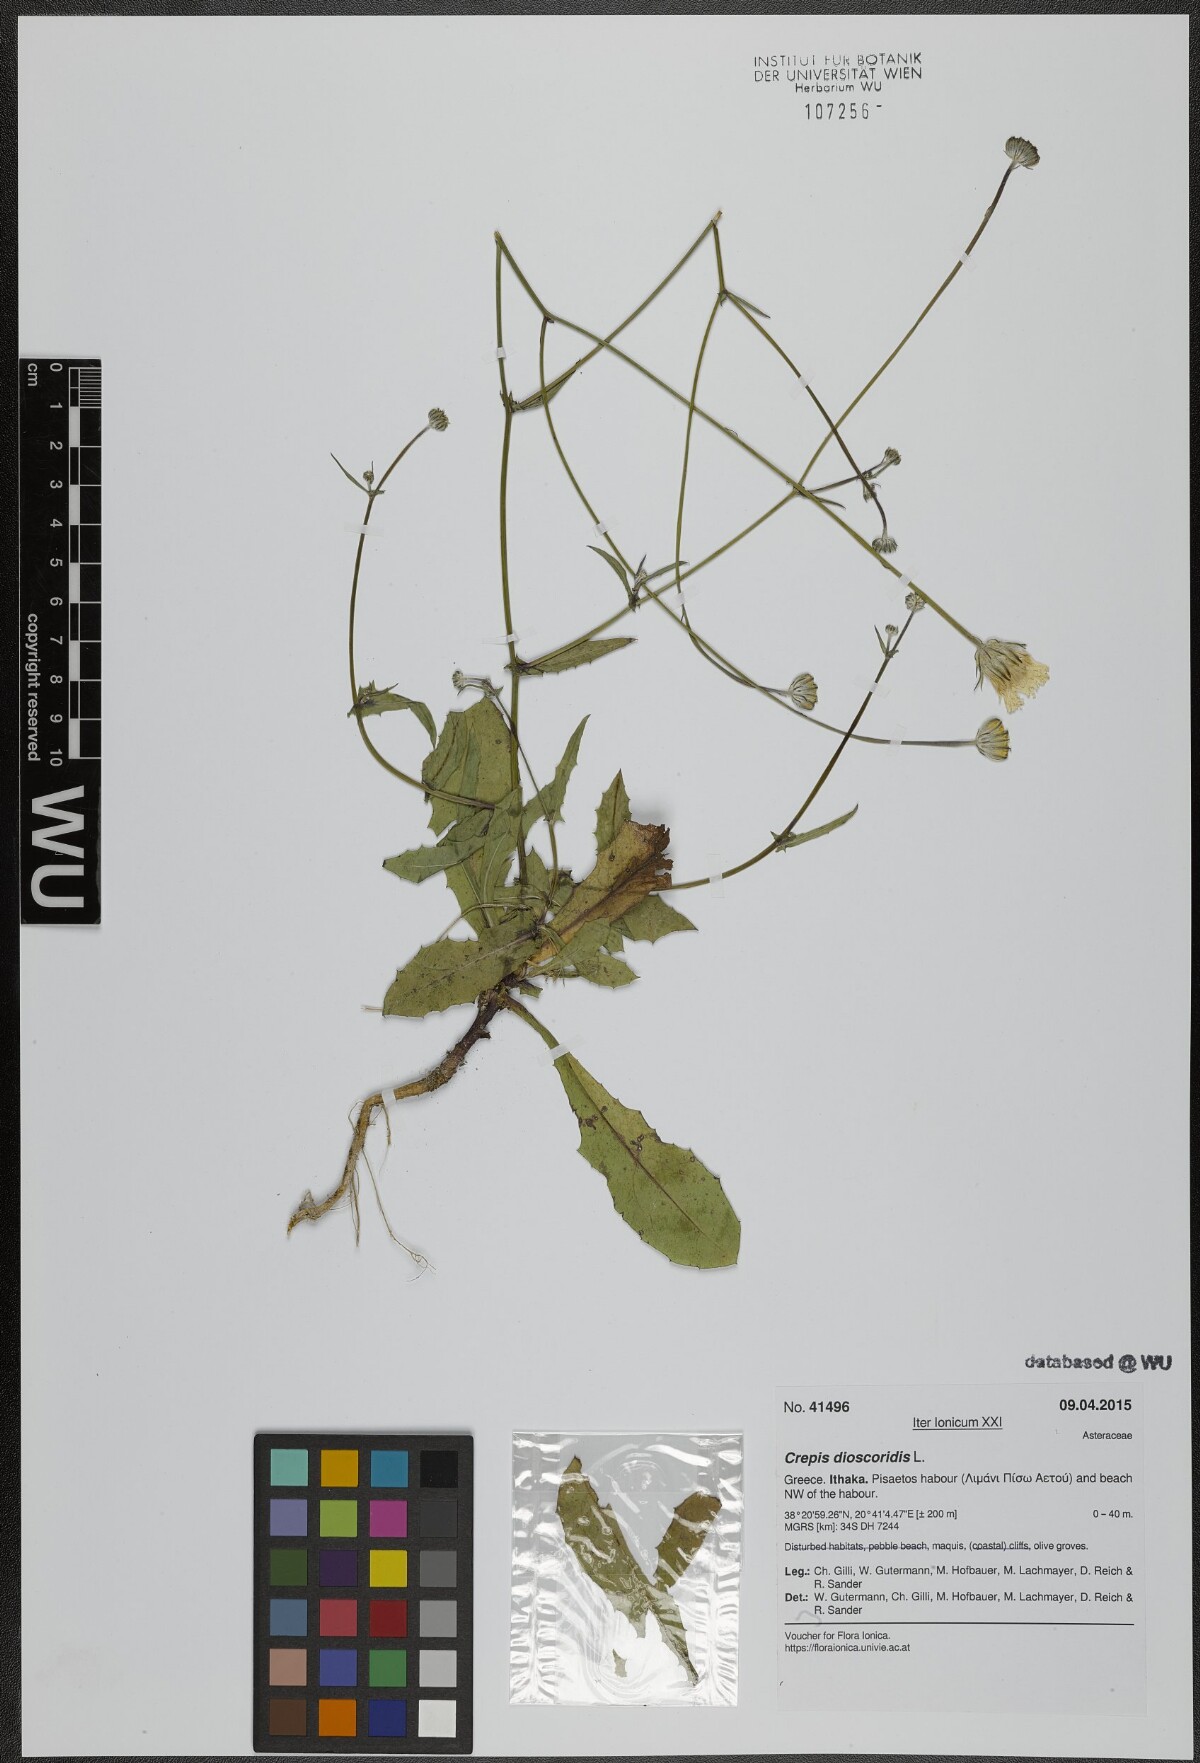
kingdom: Plantae
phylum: Tracheophyta
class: Magnoliopsida
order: Asterales
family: Asteraceae
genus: Crepis
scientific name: Crepis dioscoridis
